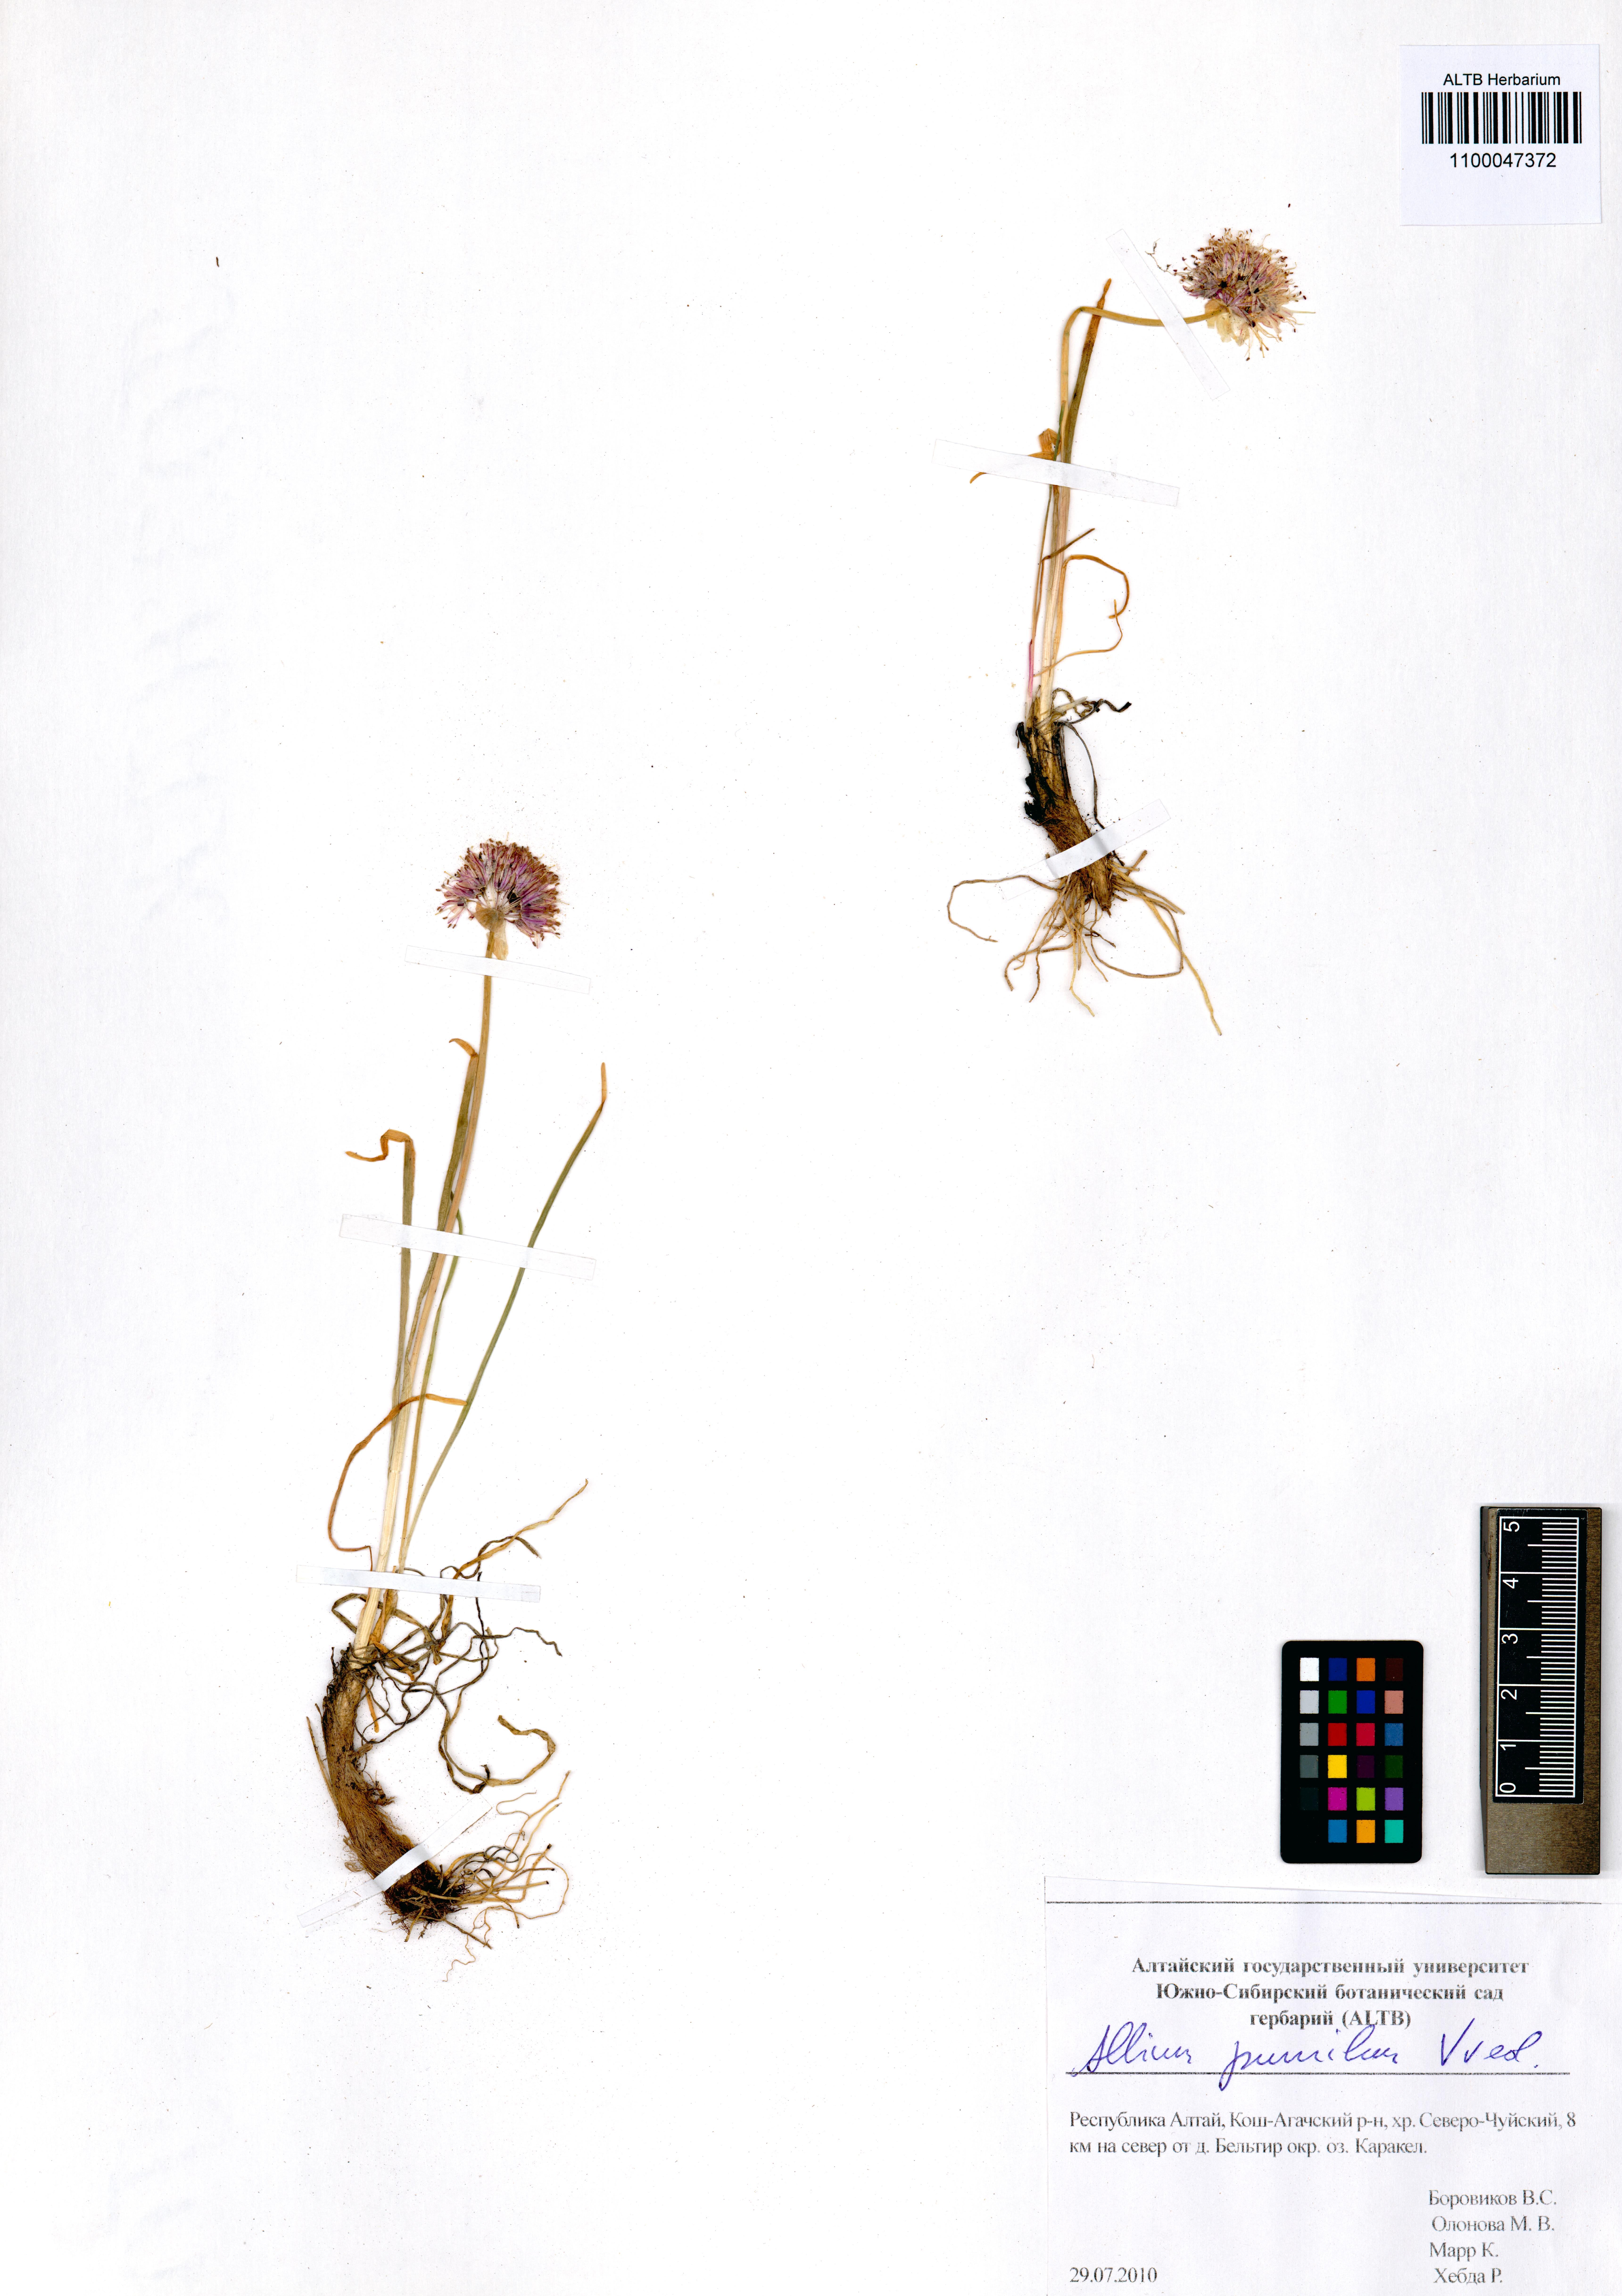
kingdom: Plantae
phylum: Tracheophyta
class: Liliopsida
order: Asparagales
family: Amaryllidaceae
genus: Allium
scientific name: Allium pumilum
